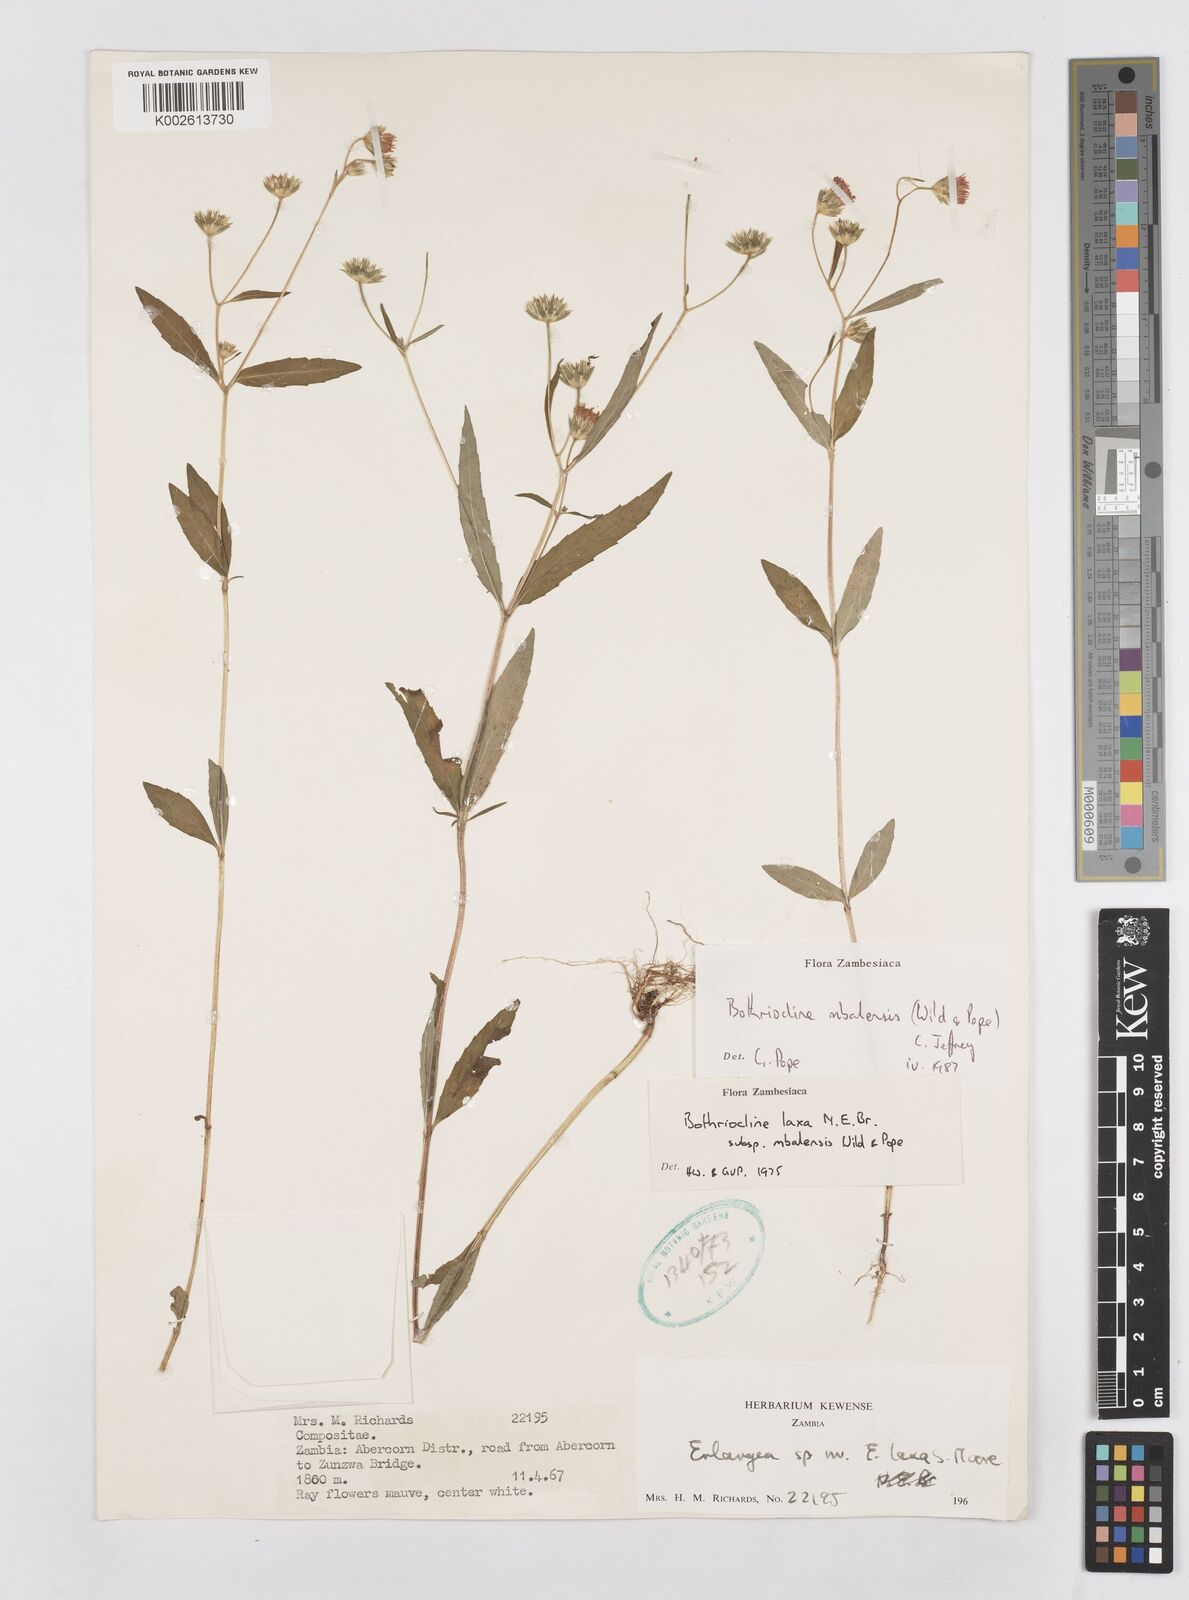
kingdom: Plantae
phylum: Tracheophyta
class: Magnoliopsida
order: Asterales
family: Asteraceae
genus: Bothriocline
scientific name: Bothriocline mbalensis
